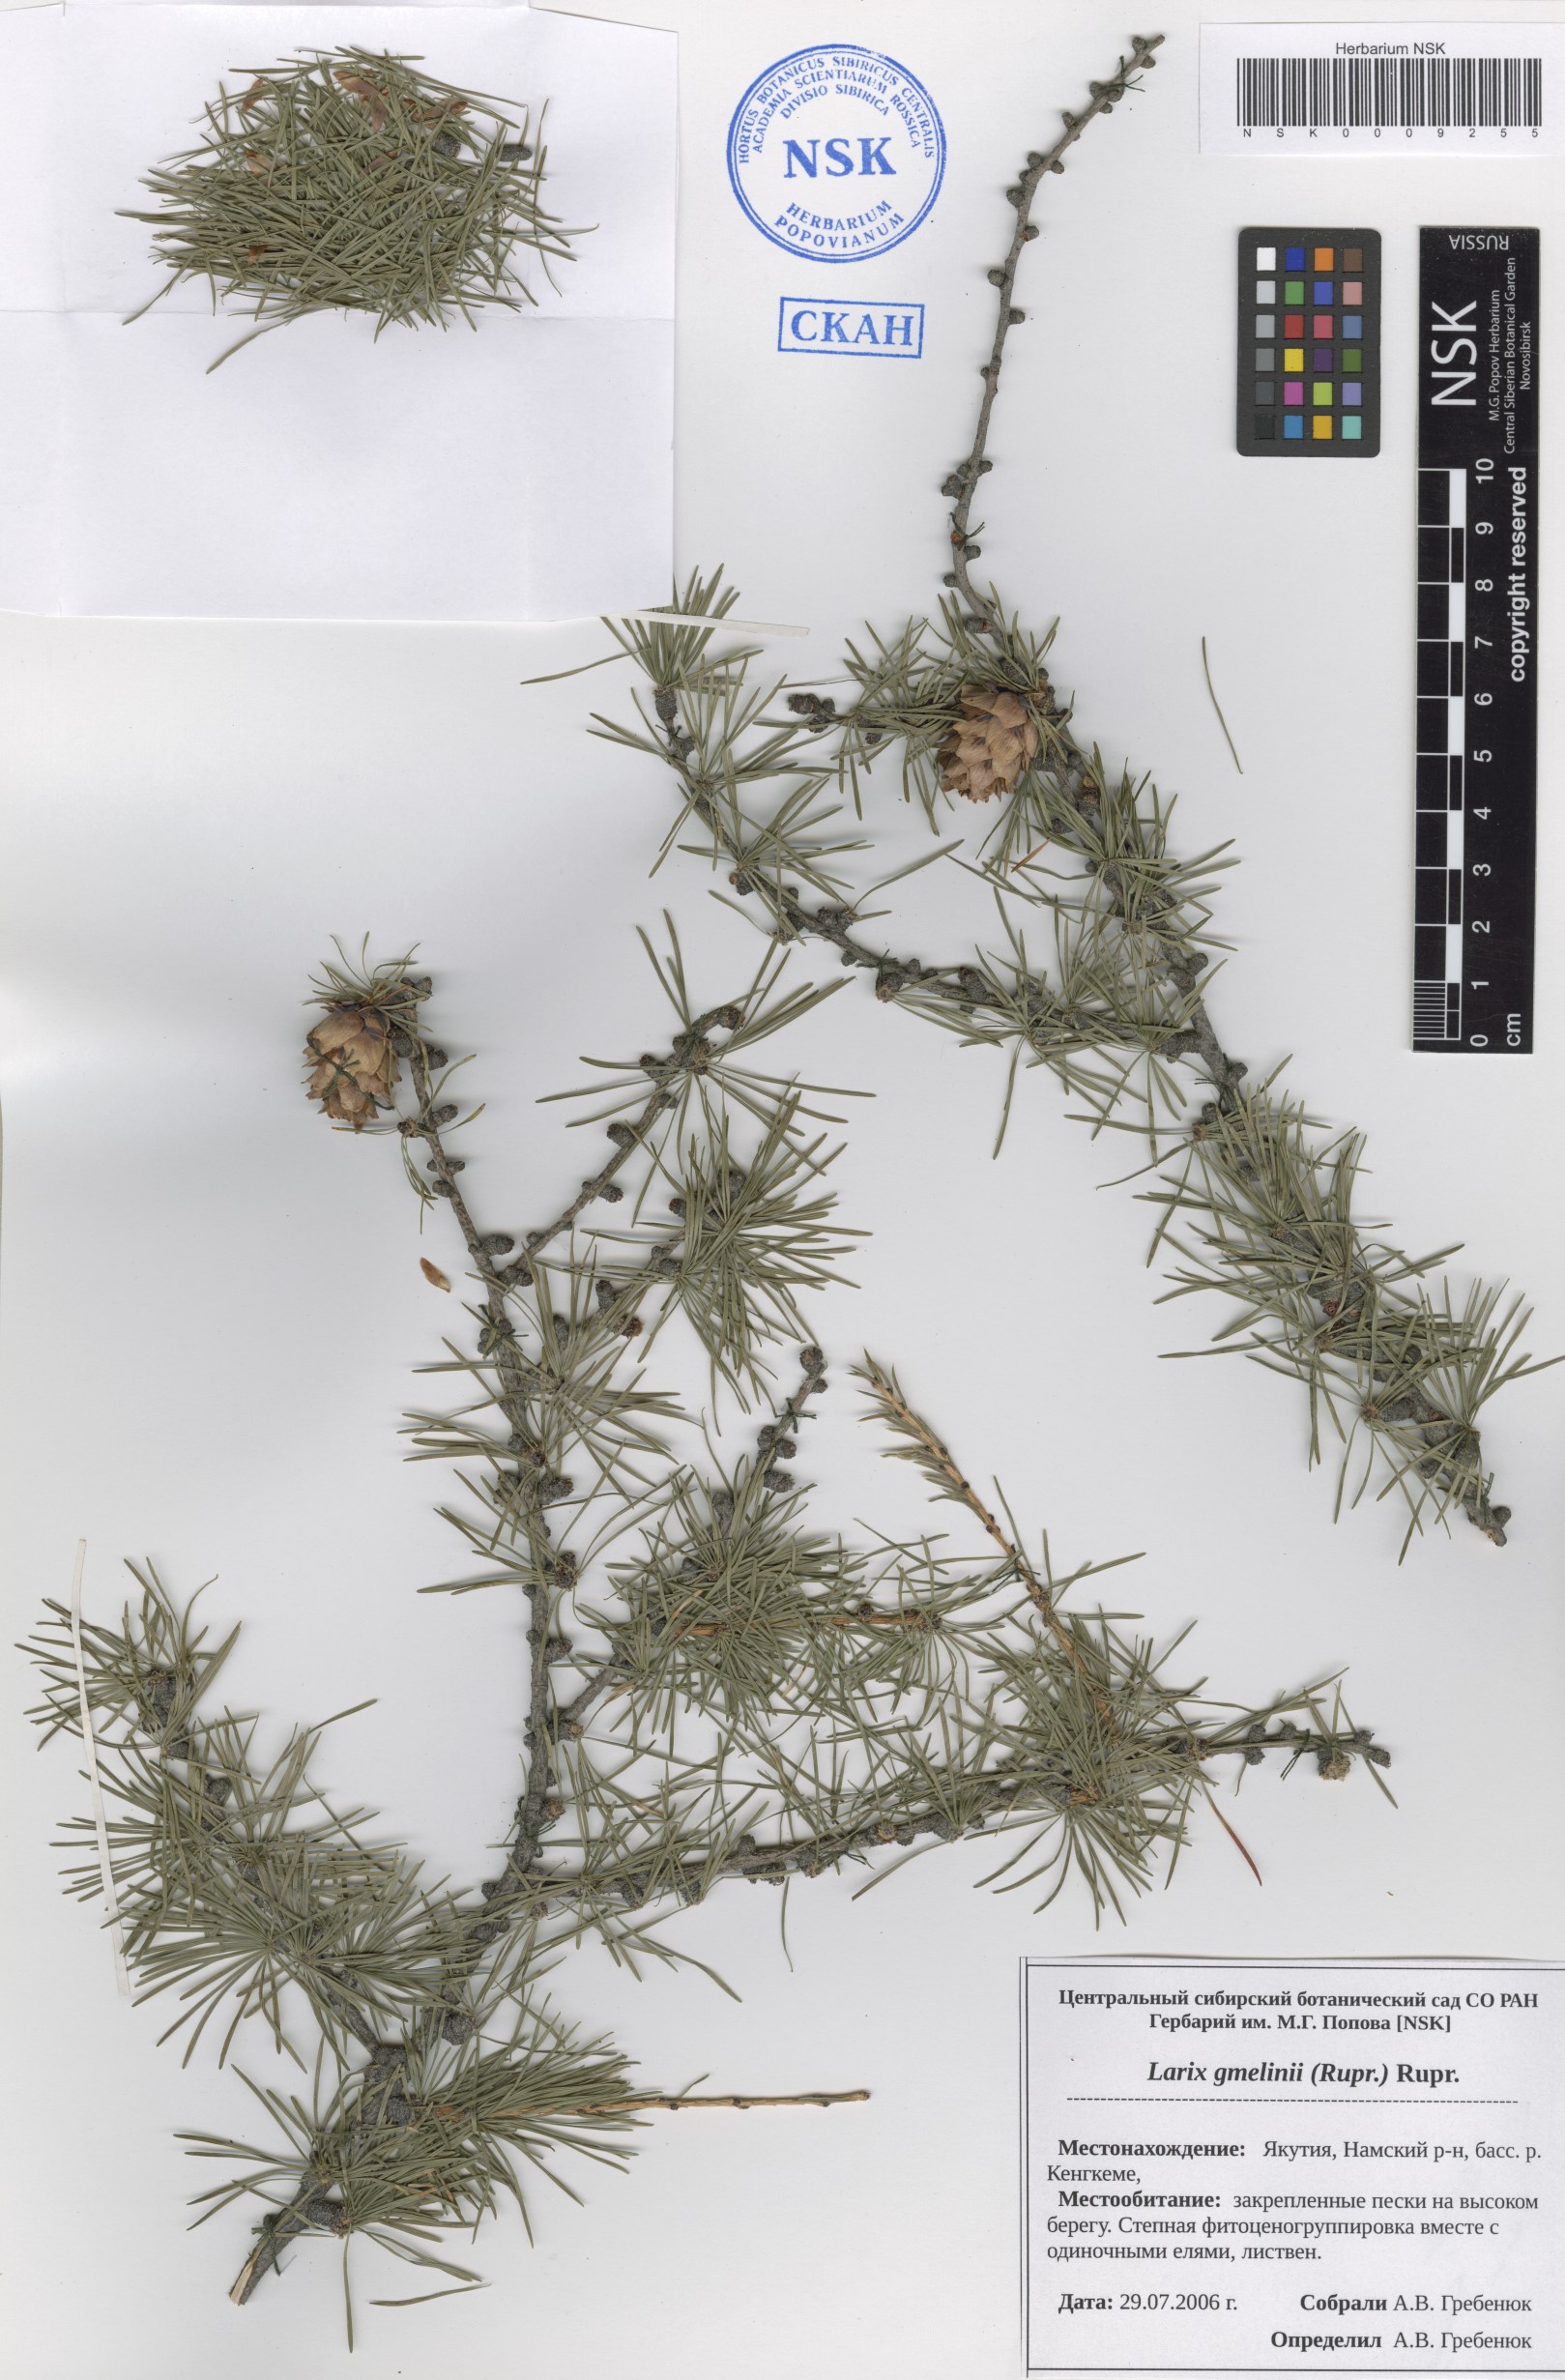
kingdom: Plantae
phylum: Tracheophyta
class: Pinopsida
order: Pinales
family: Pinaceae
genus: Larix
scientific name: Larix gmelinii
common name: Dahurian larch
